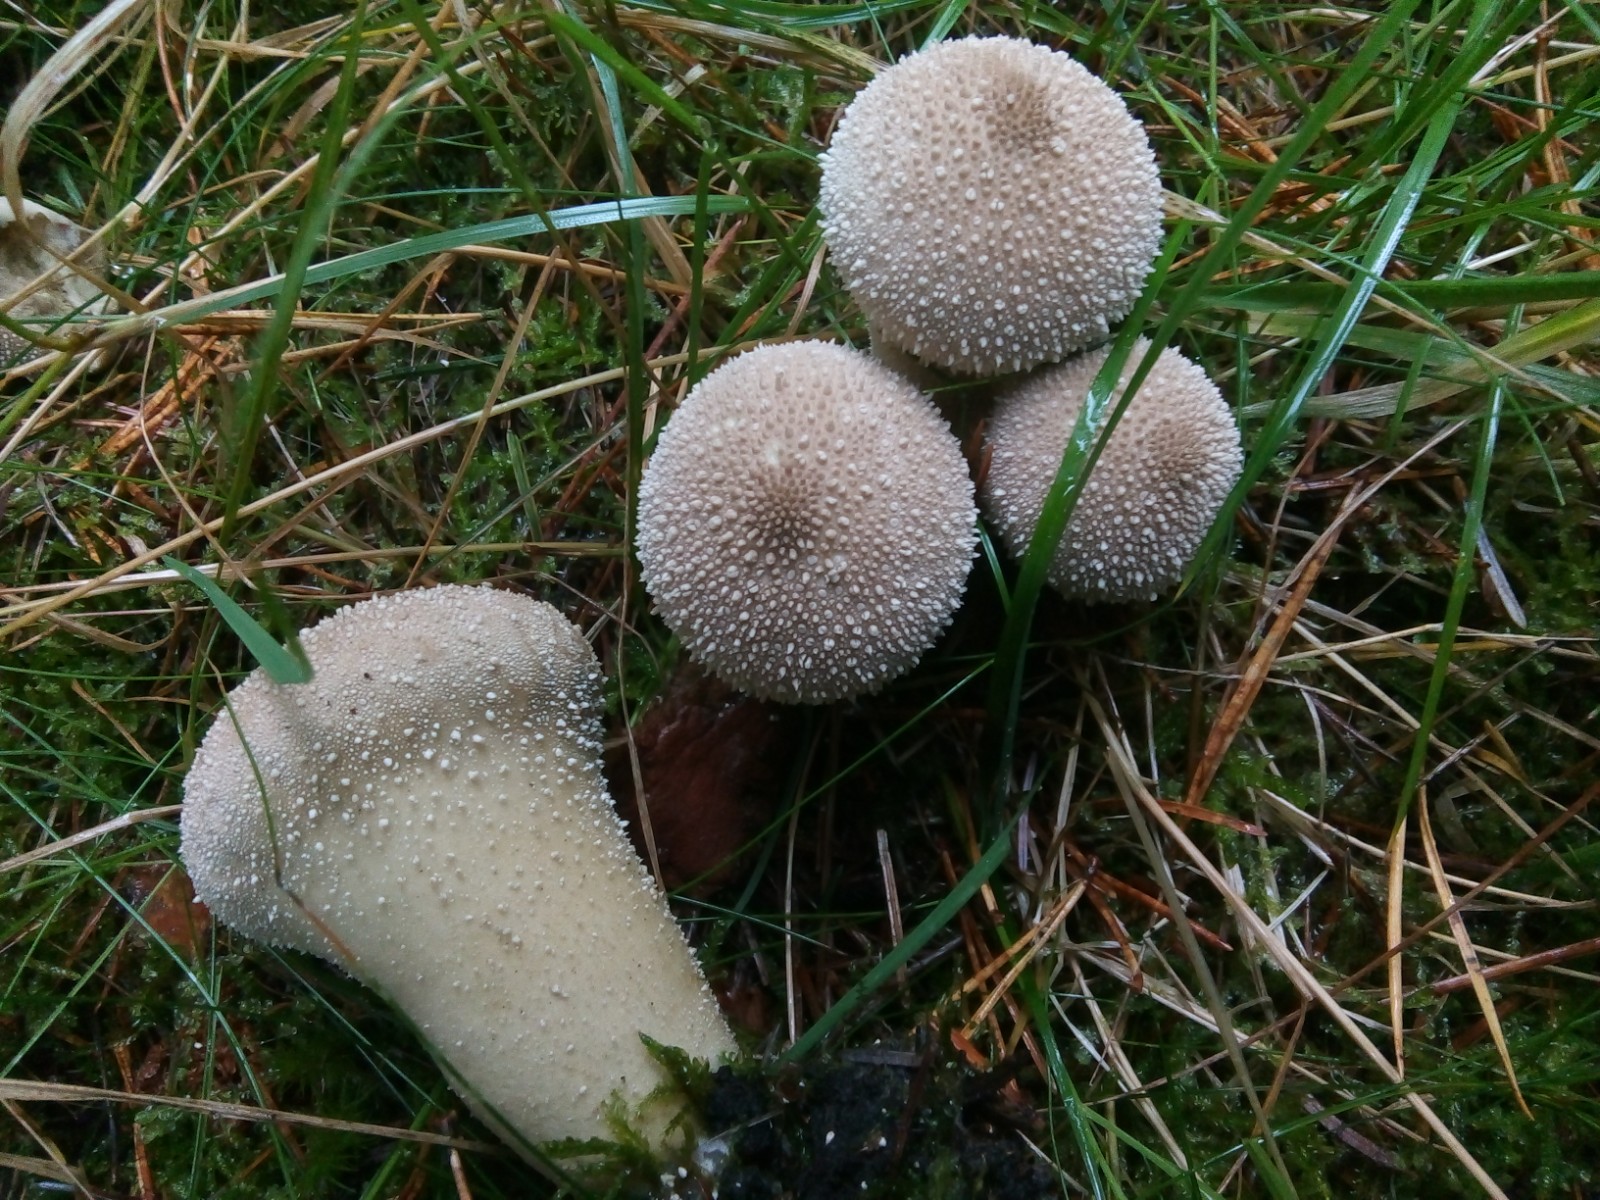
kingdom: Fungi
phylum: Basidiomycota
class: Agaricomycetes
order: Agaricales
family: Lycoperdaceae
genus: Lycoperdon
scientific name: Lycoperdon perlatum
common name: krystal-støvbold
